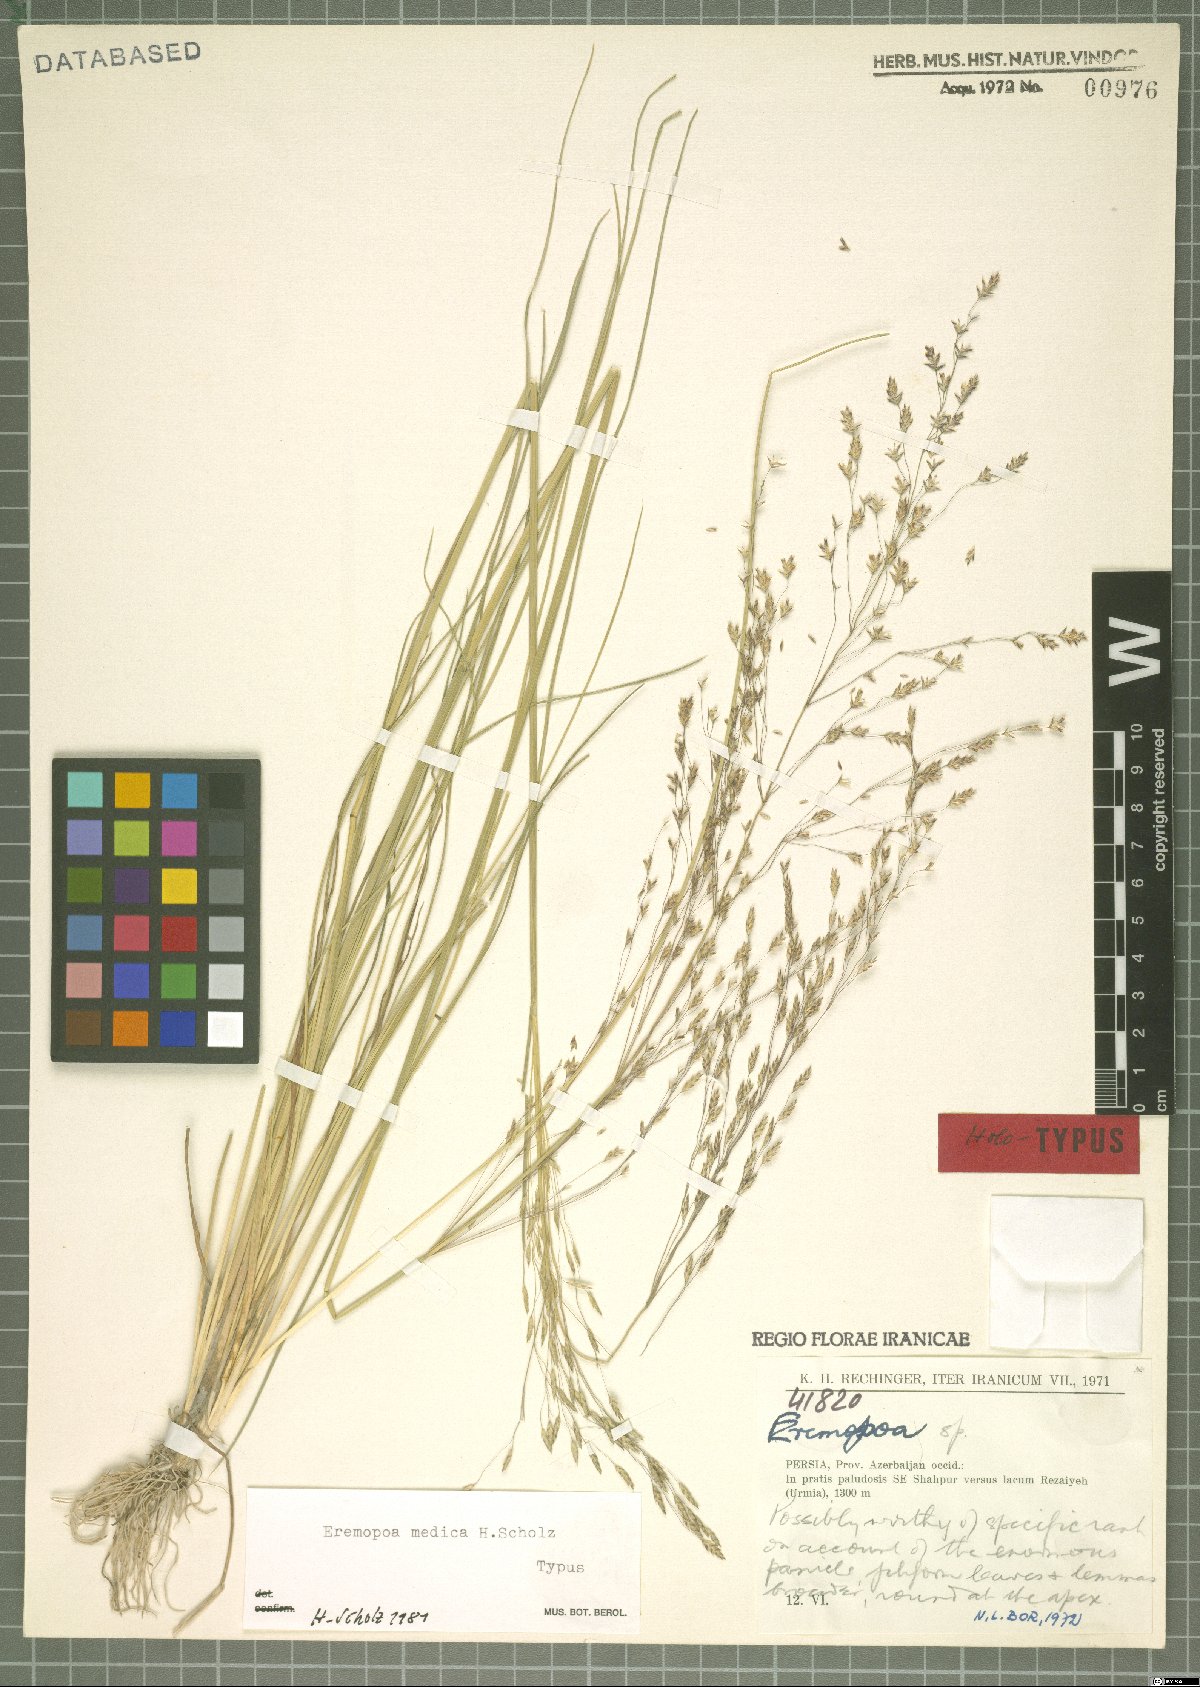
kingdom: Plantae
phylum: Tracheophyta
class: Liliopsida
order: Poales
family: Poaceae
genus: Puccinellia
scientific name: Puccinellia gigantea
